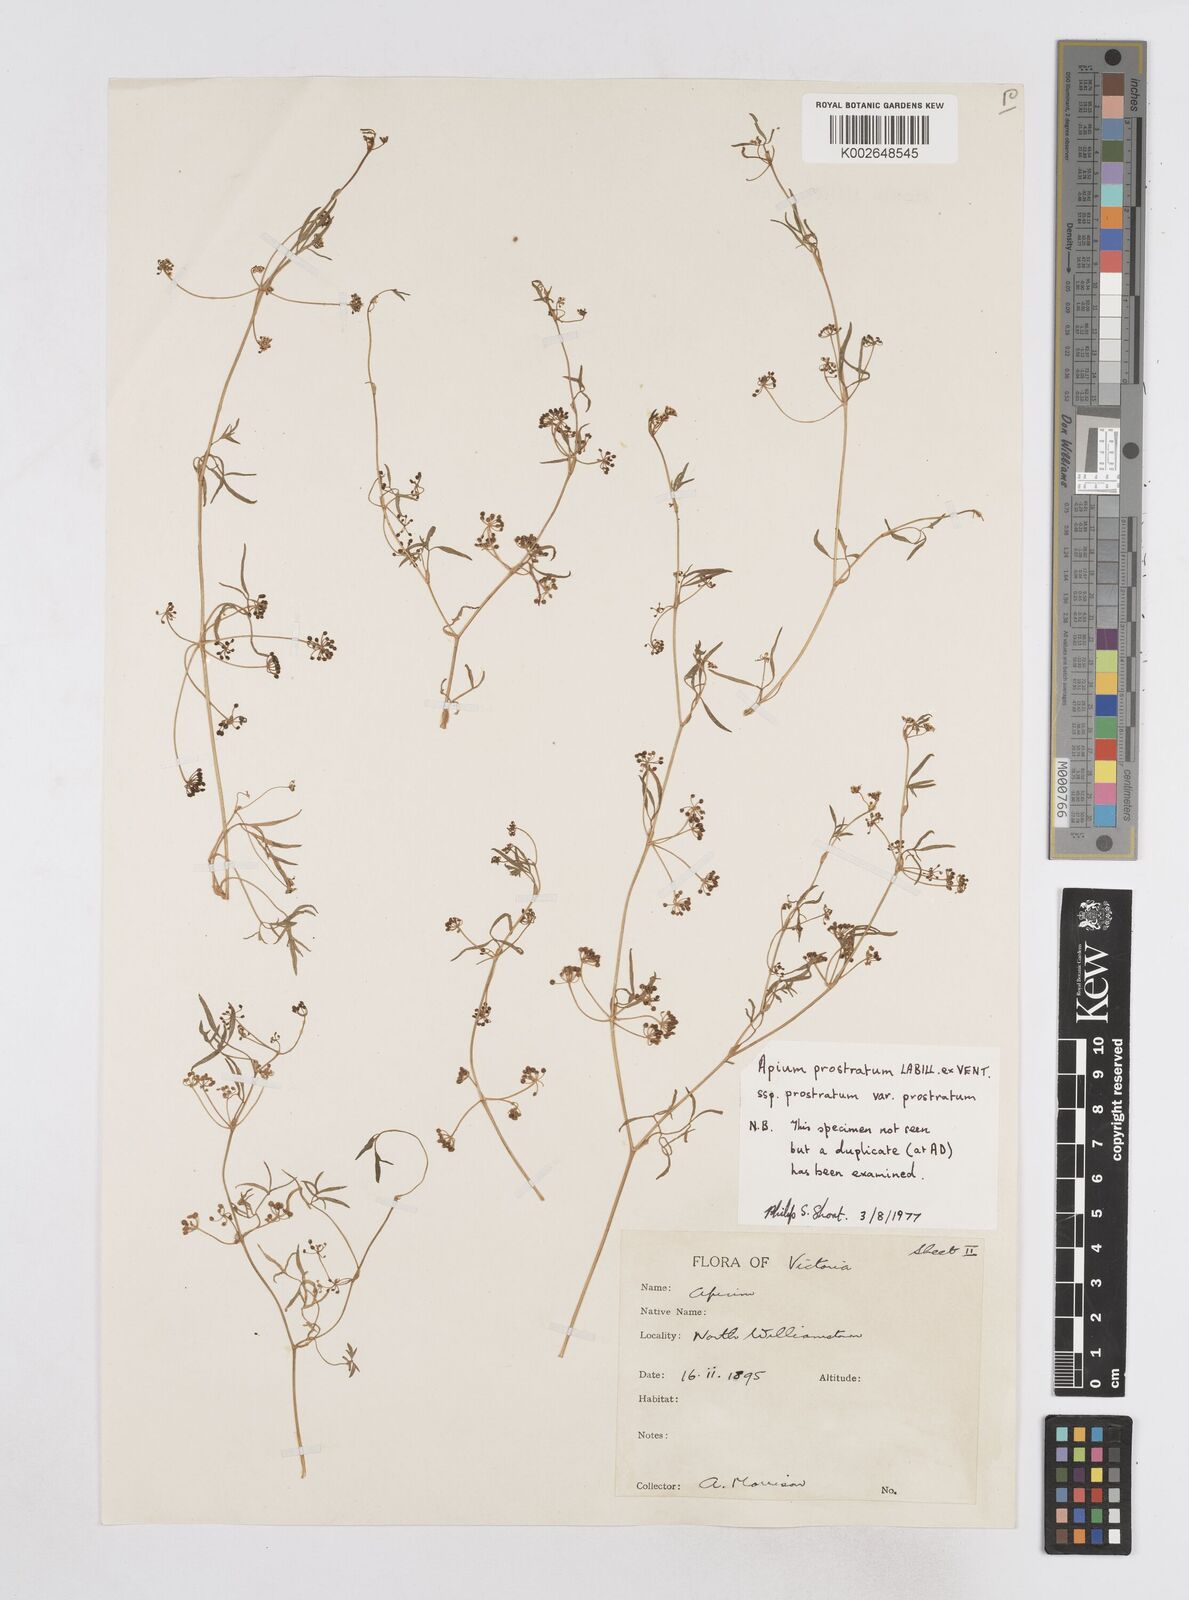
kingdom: Plantae
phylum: Tracheophyta
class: Magnoliopsida
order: Apiales
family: Apiaceae
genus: Apium
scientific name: Apium prostratum
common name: Prostrate marshwort
